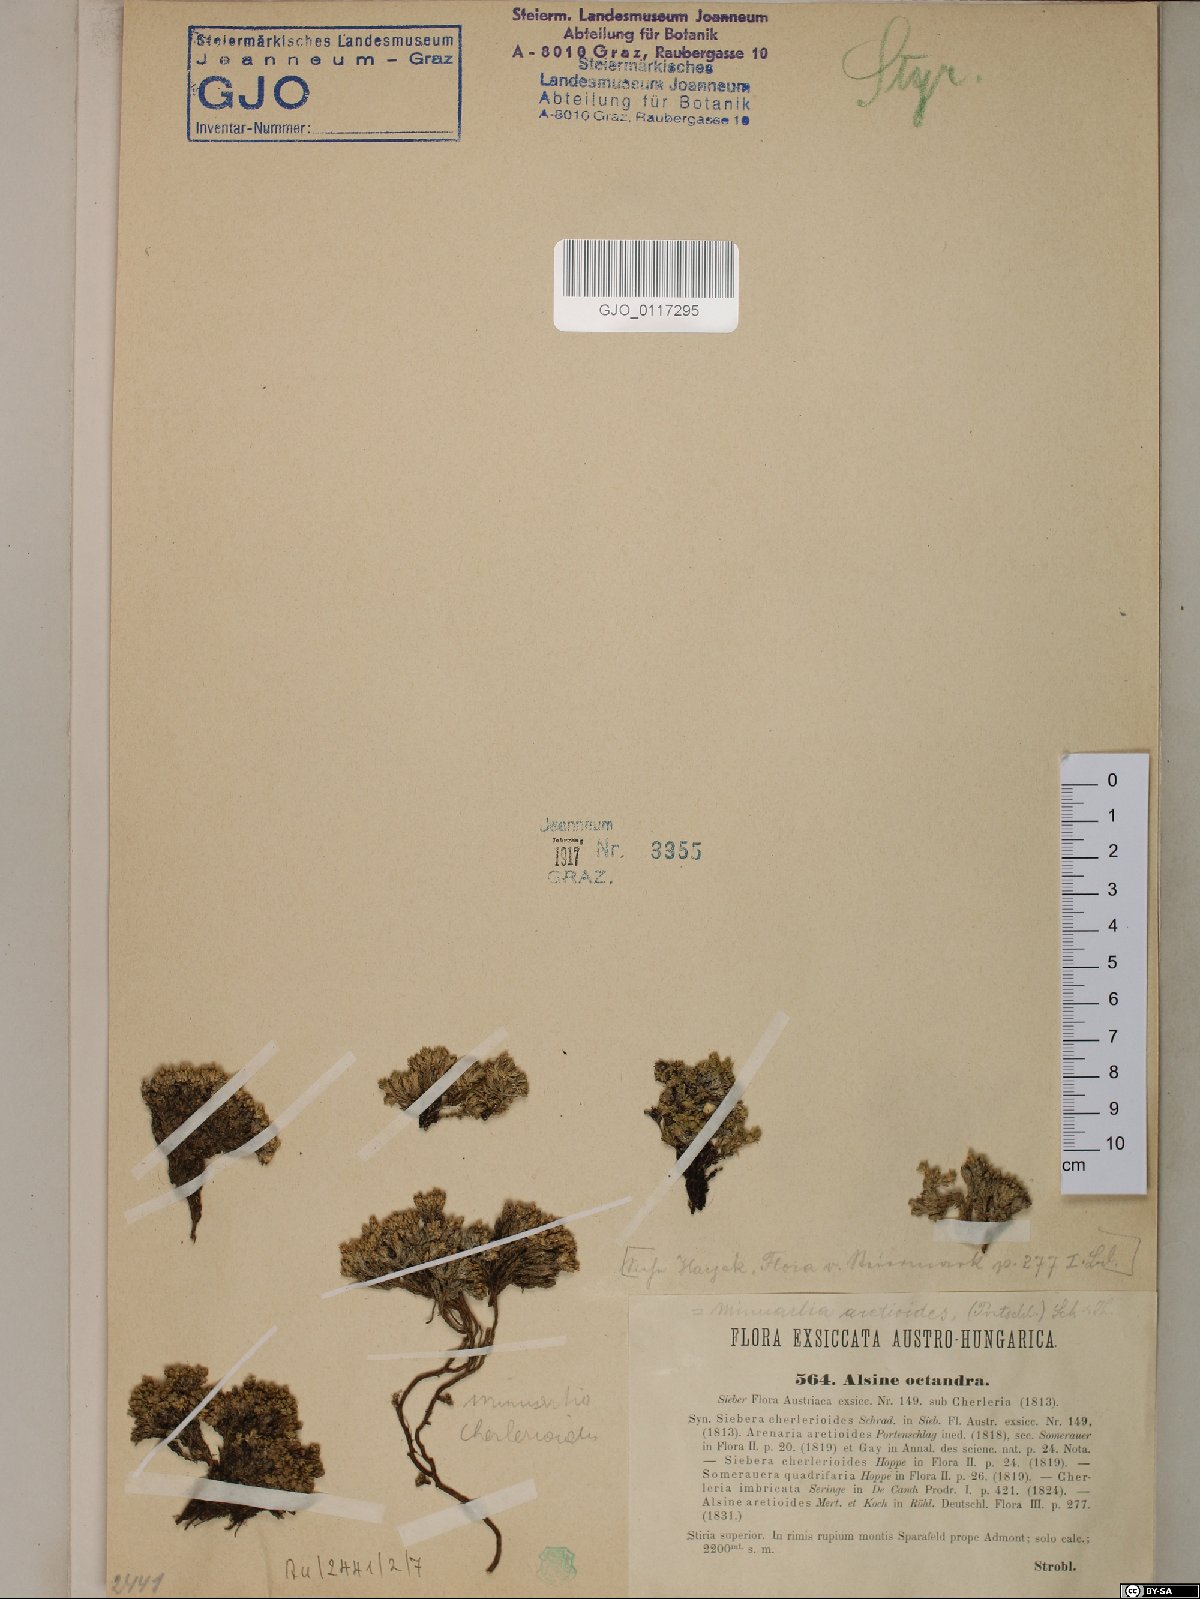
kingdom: Plantae
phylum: Tracheophyta
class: Magnoliopsida
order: Caryophyllales
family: Caryophyllaceae
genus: Facchinia
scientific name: Facchinia cherlerioides
